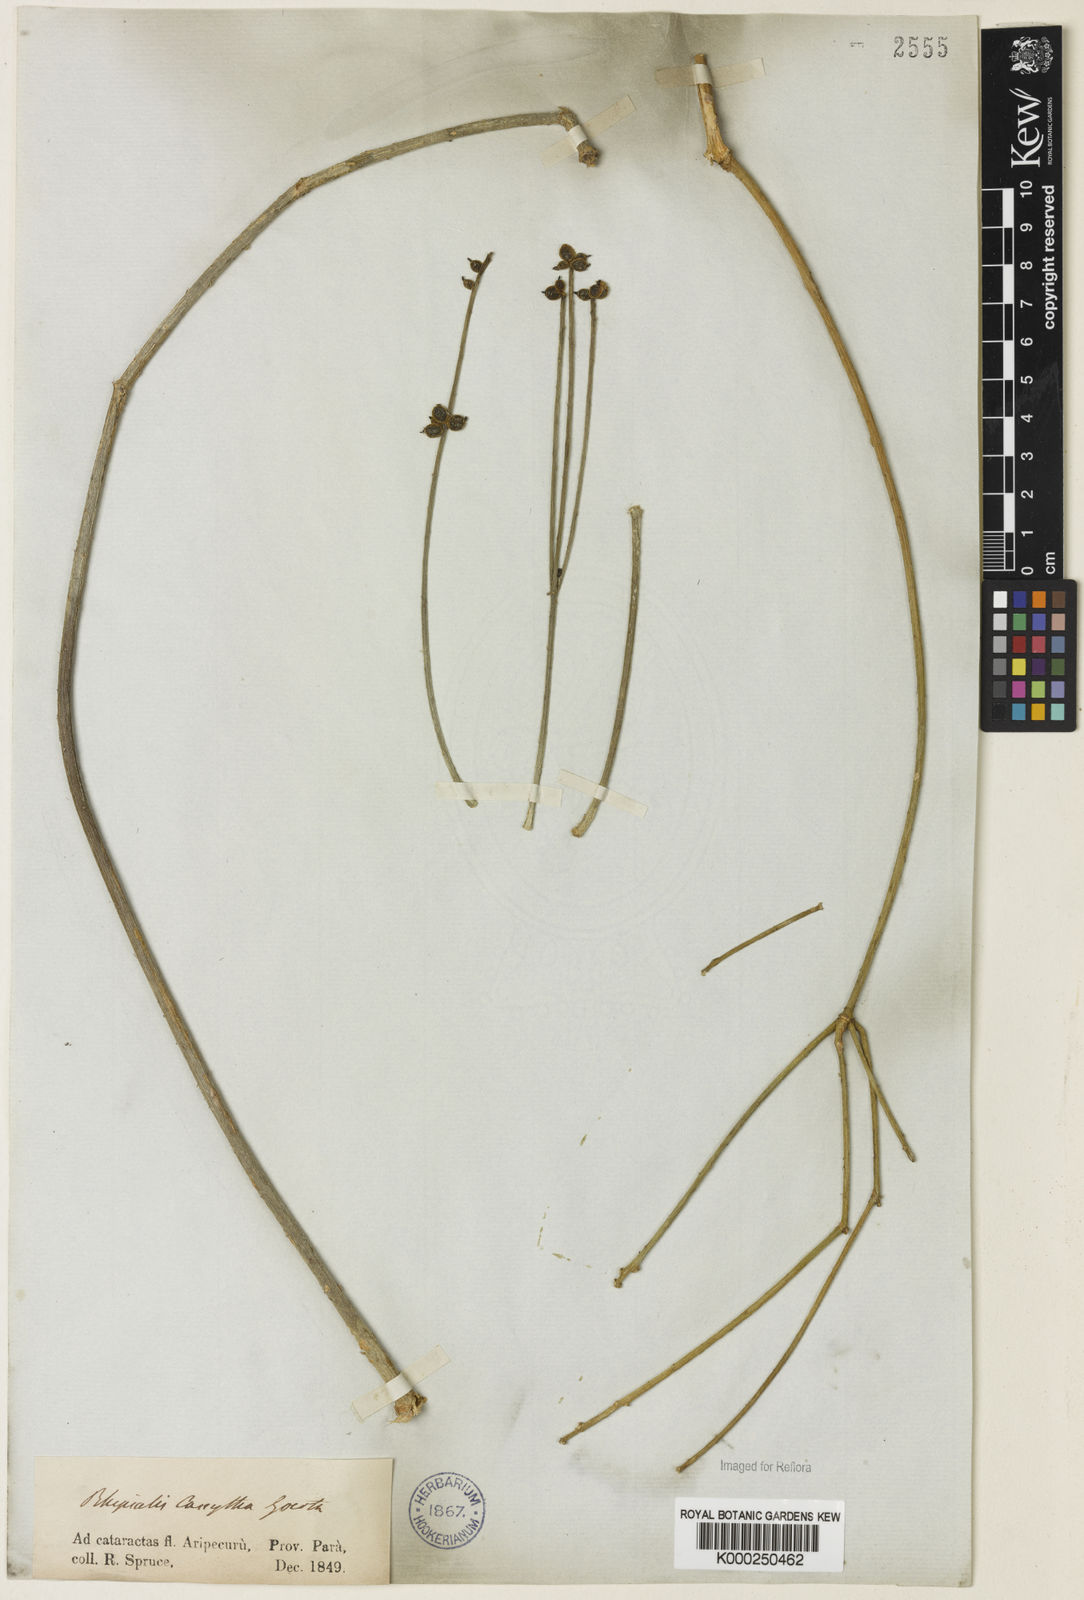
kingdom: Plantae
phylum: Tracheophyta
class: Magnoliopsida
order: Caryophyllales
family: Cactaceae
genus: Rhipsalis
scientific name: Rhipsalis baccifera
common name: Mistletoe cactus
